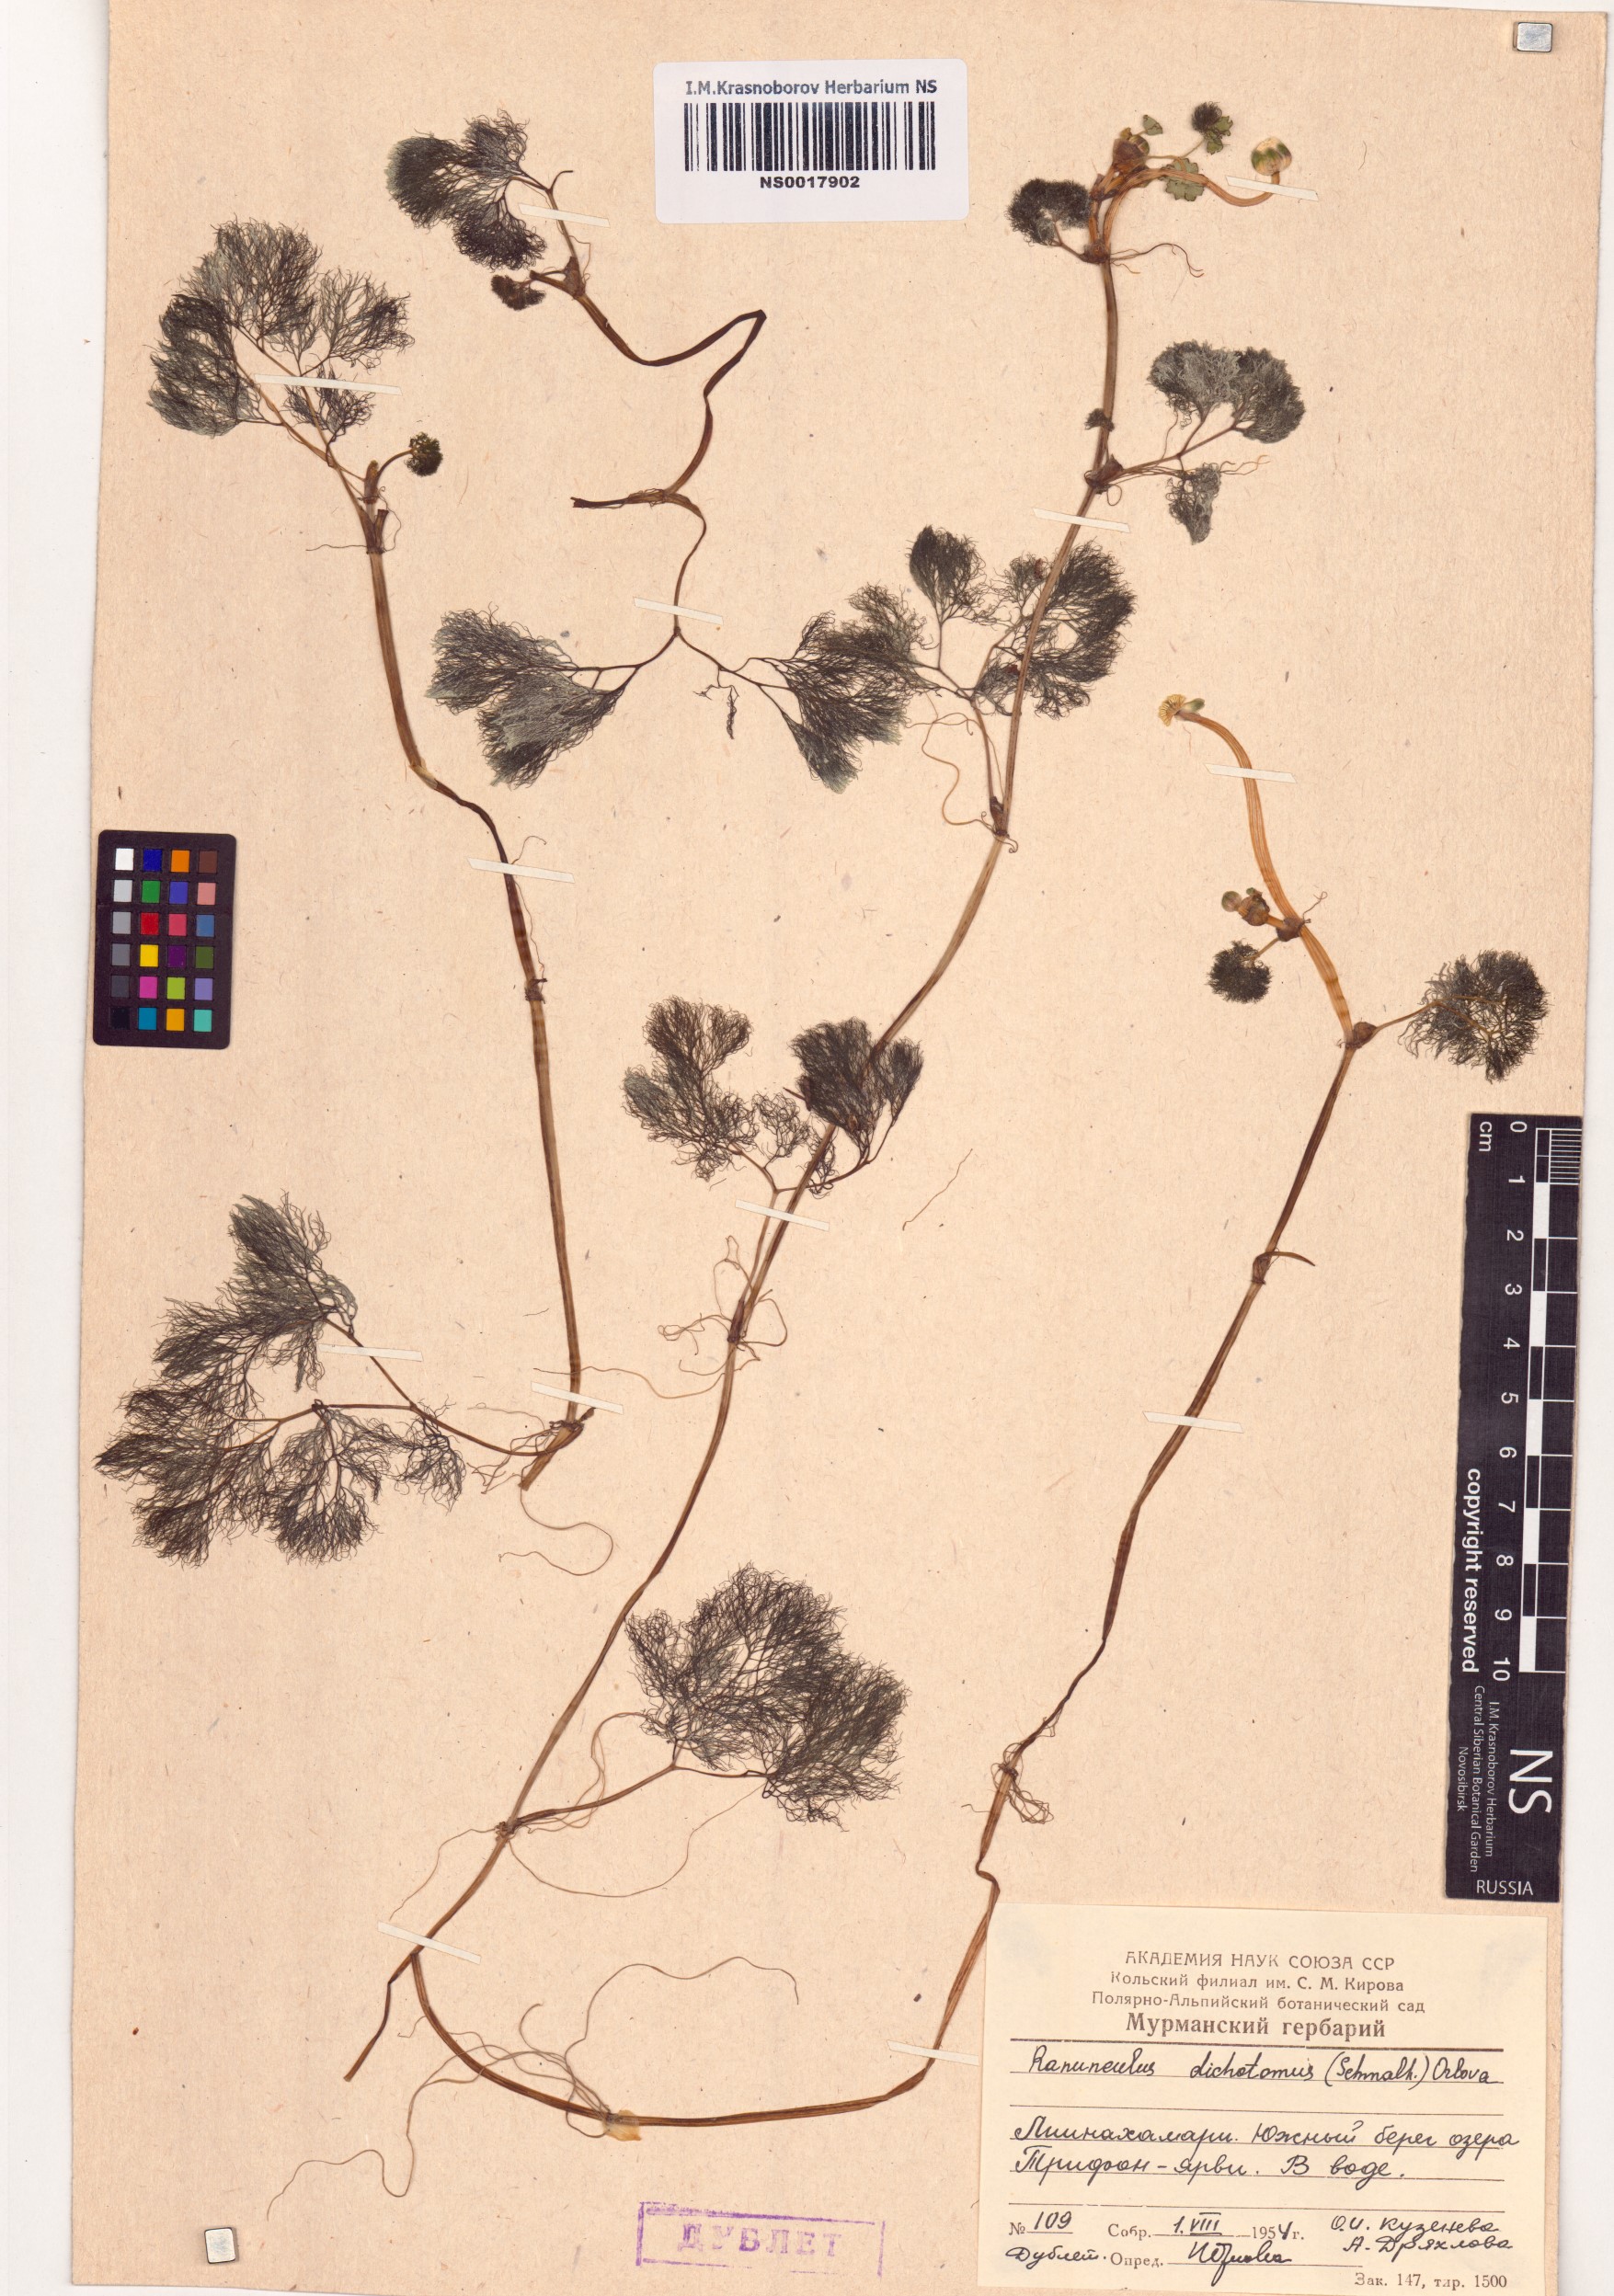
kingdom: Plantae
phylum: Tracheophyta
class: Magnoliopsida
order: Ranunculales
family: Ranunculaceae
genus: Ranunculus
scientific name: Ranunculus dichotomus
